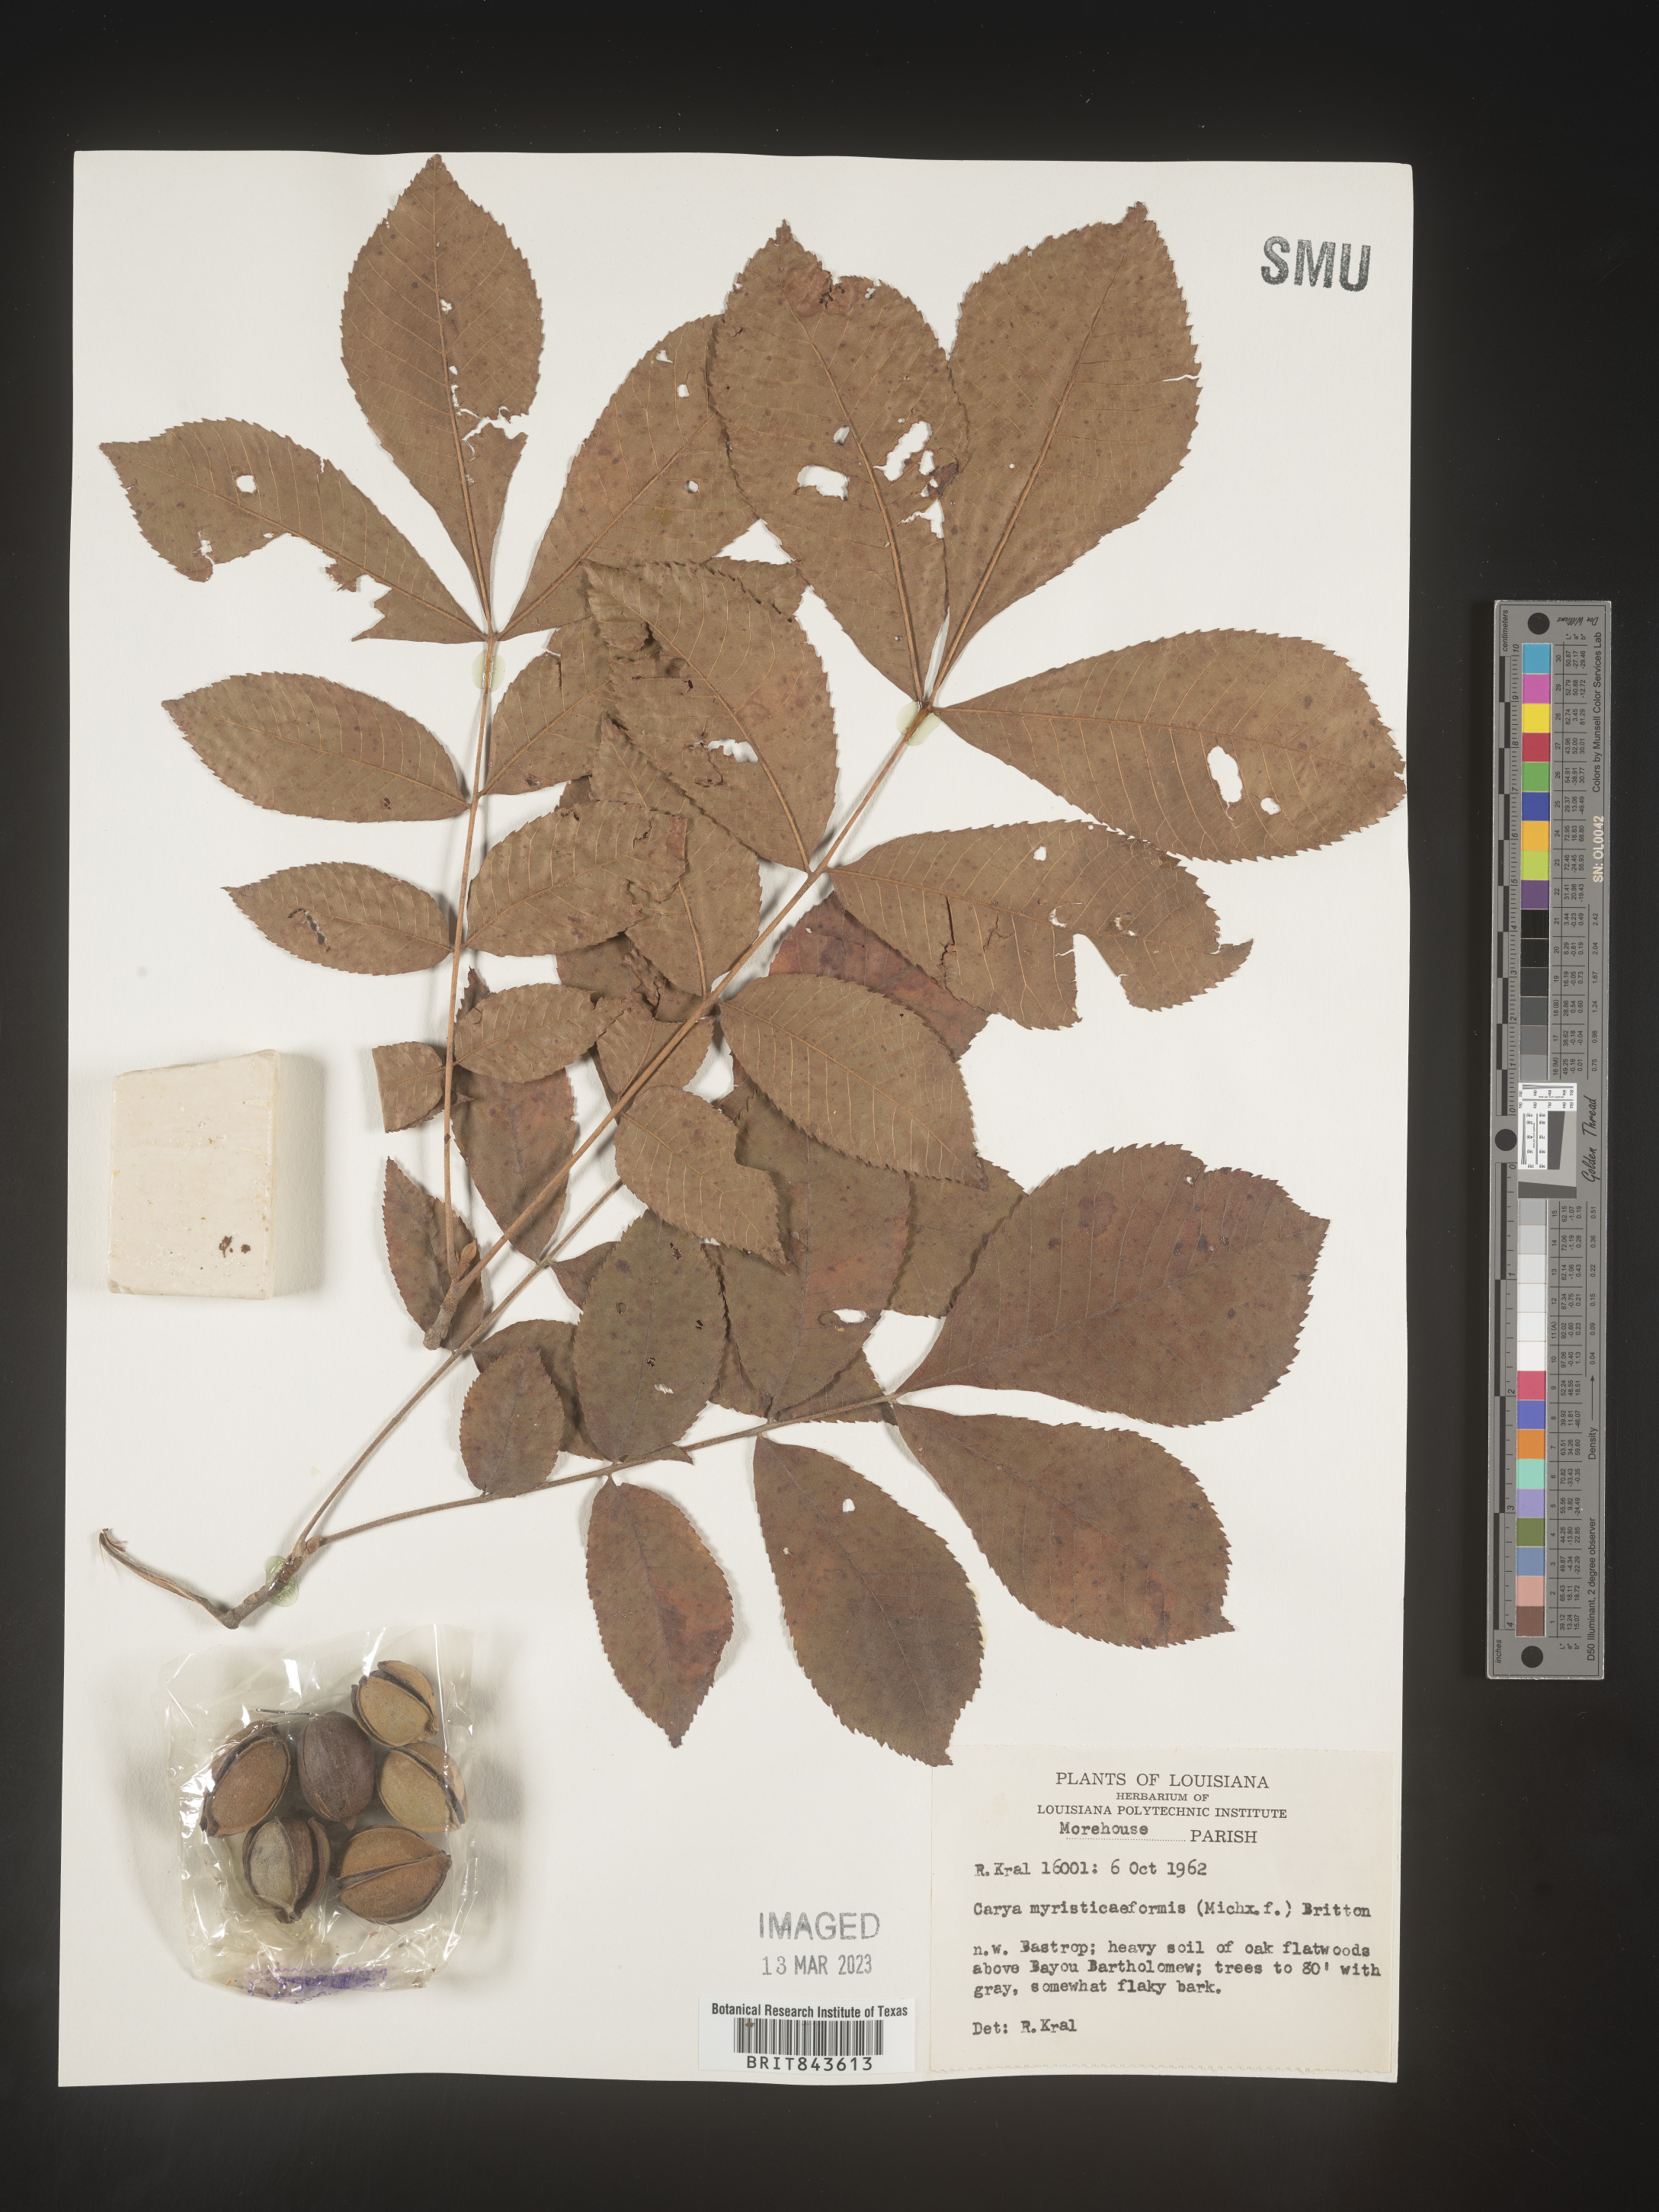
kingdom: Plantae
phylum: Tracheophyta
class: Magnoliopsida
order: Fagales
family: Juglandaceae
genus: Carya
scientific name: Carya myristiciformis
